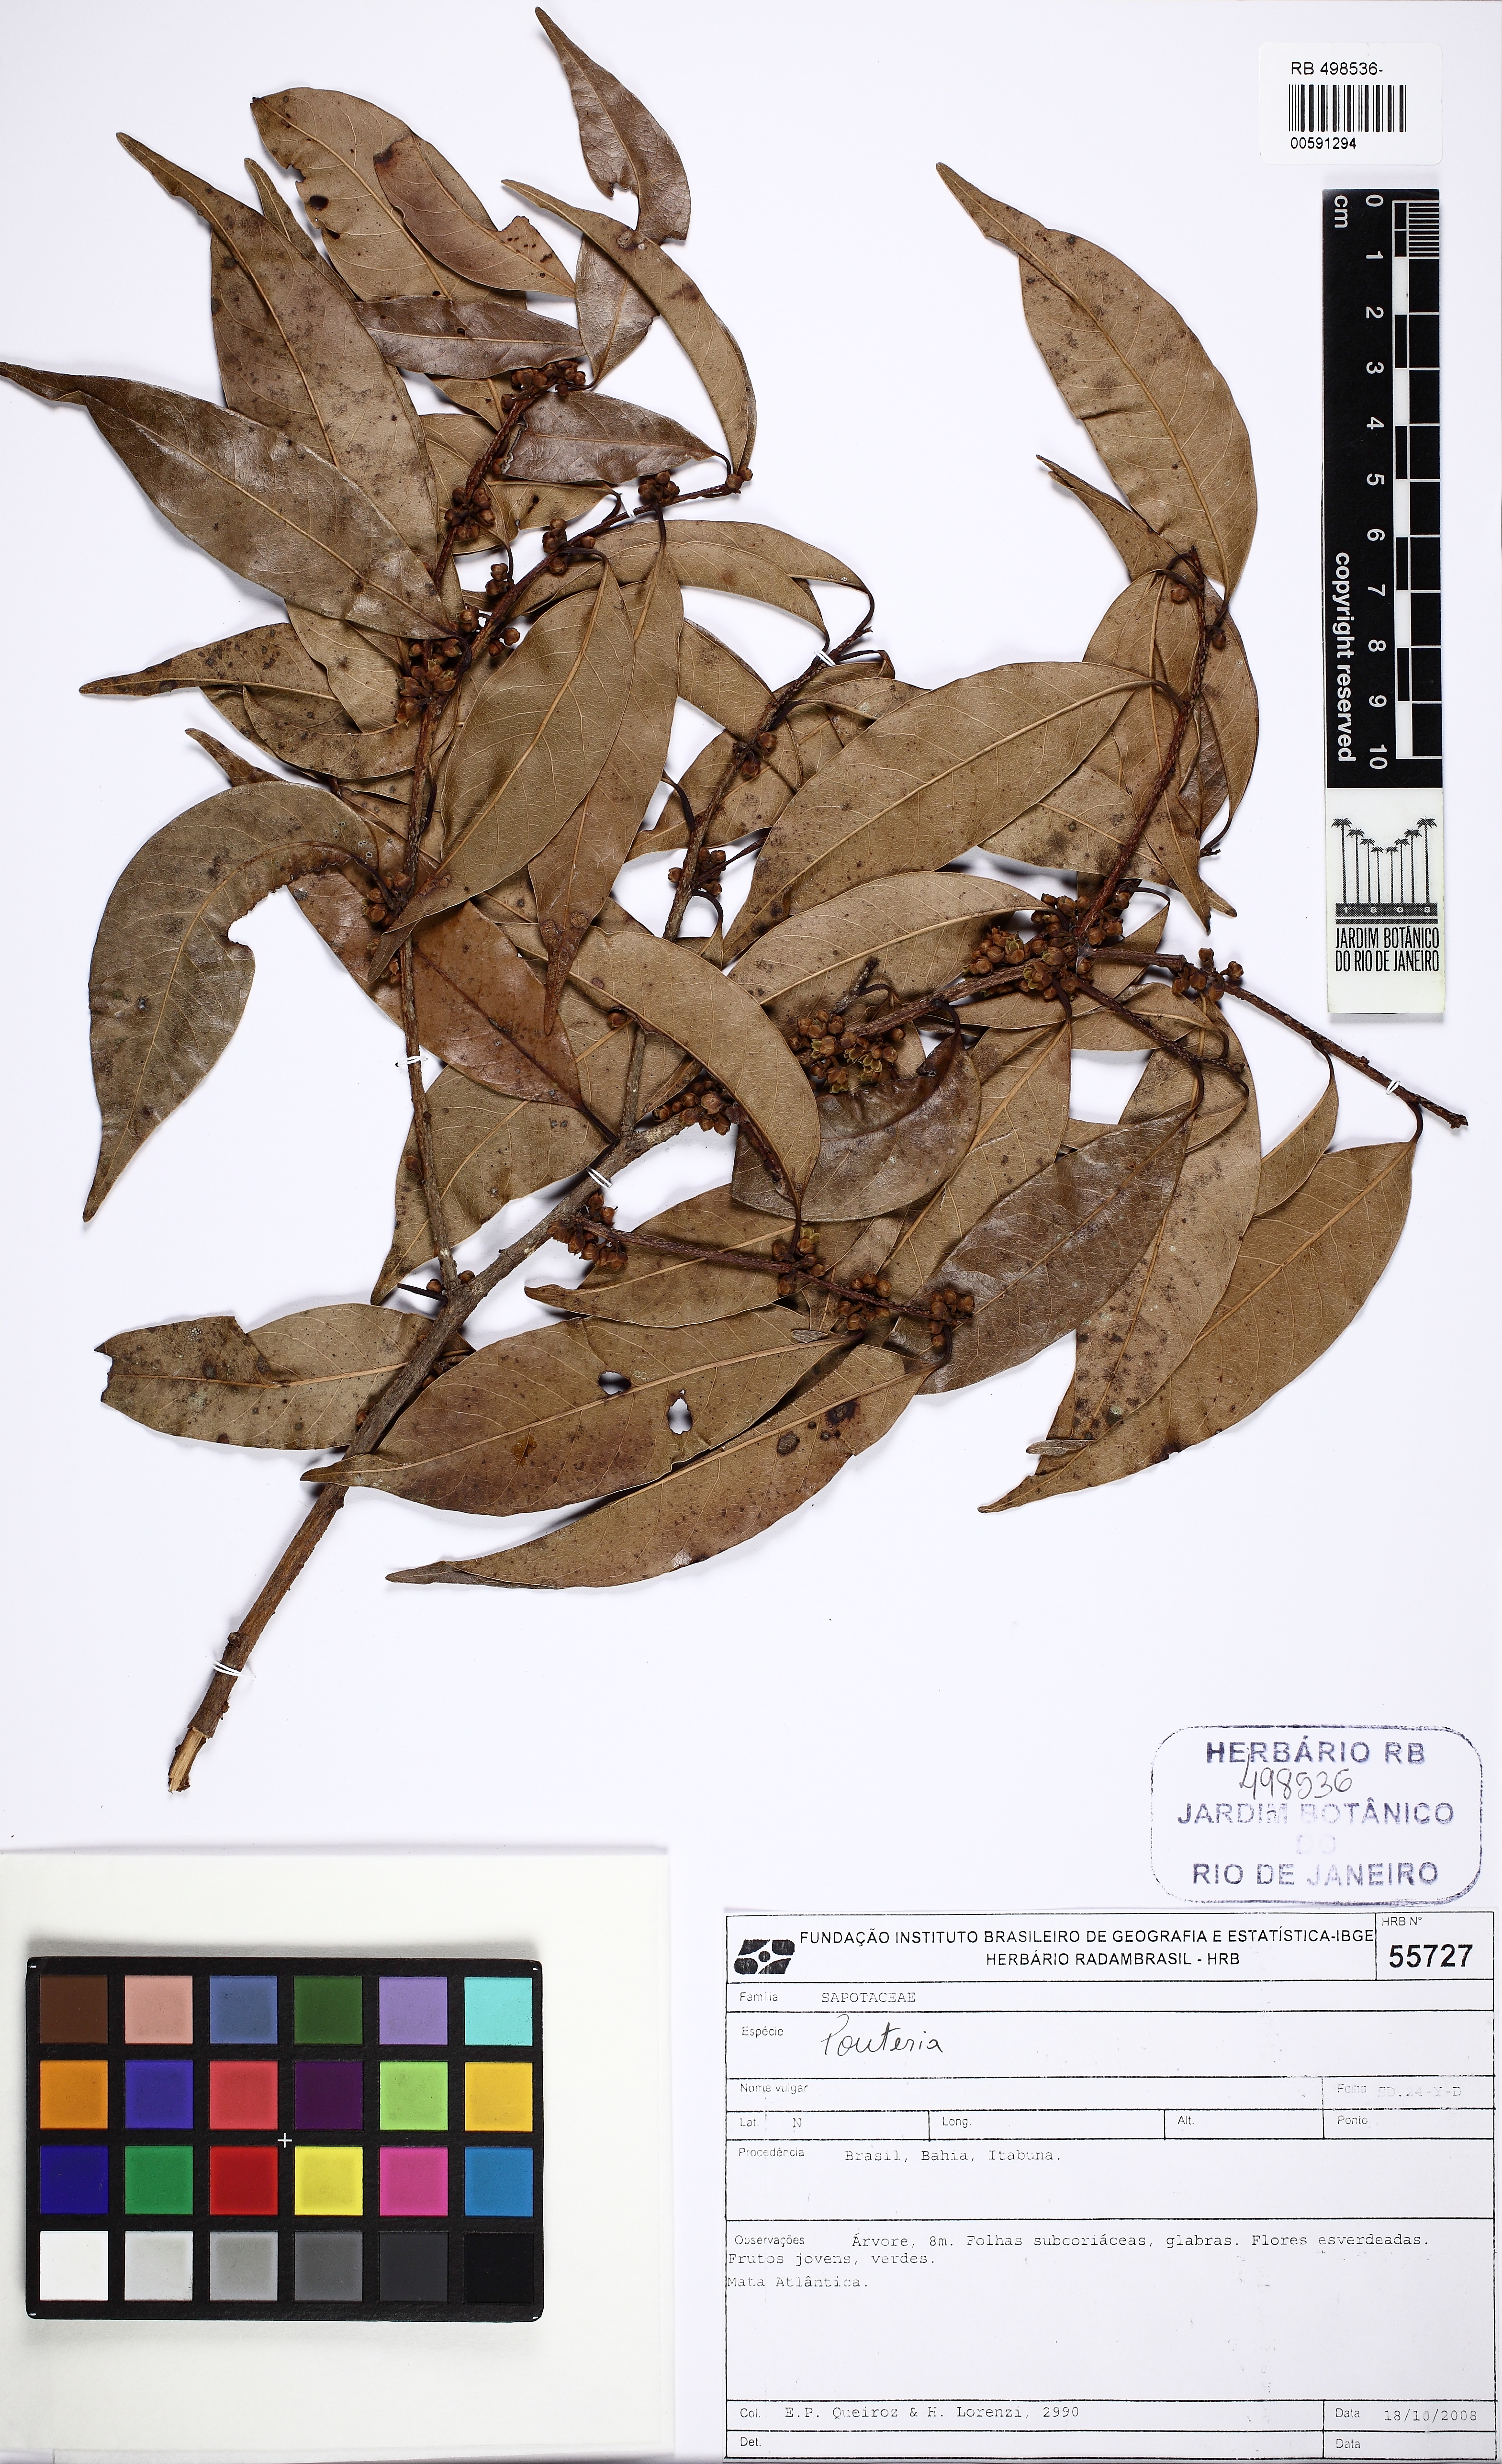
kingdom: Plantae
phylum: Tracheophyta
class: Magnoliopsida
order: Ericales
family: Sapotaceae
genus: Pouteria
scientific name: Pouteria procera
